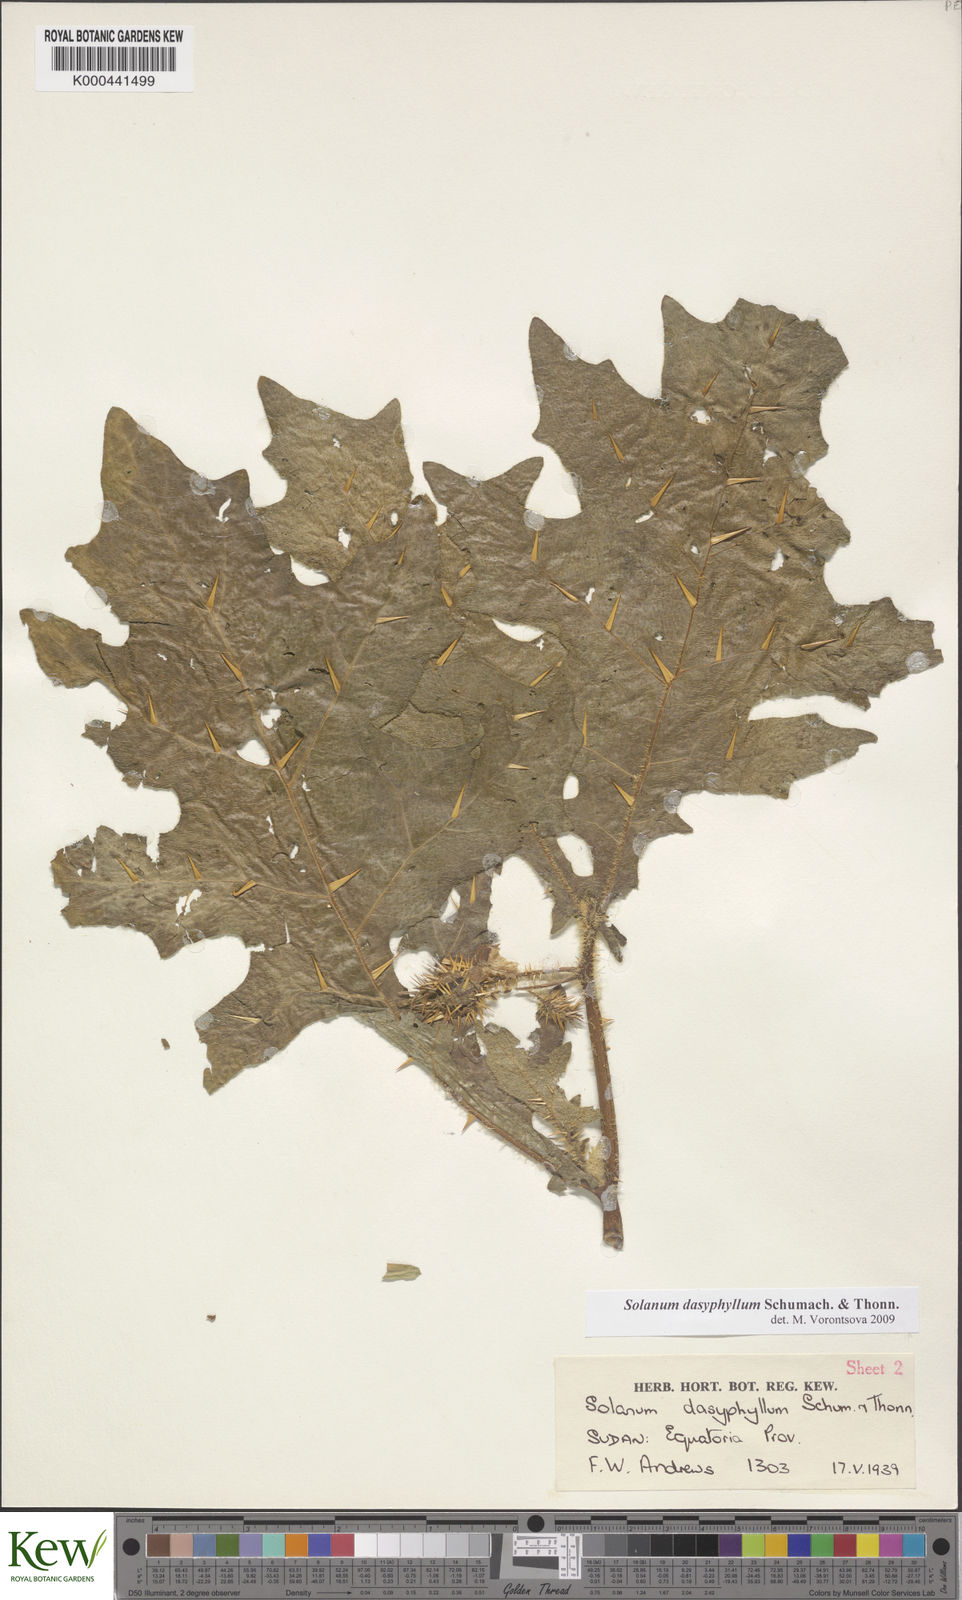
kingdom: Plantae
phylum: Tracheophyta
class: Magnoliopsida
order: Solanales
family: Solanaceae
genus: Solanum
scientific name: Solanum dasyphyllum
